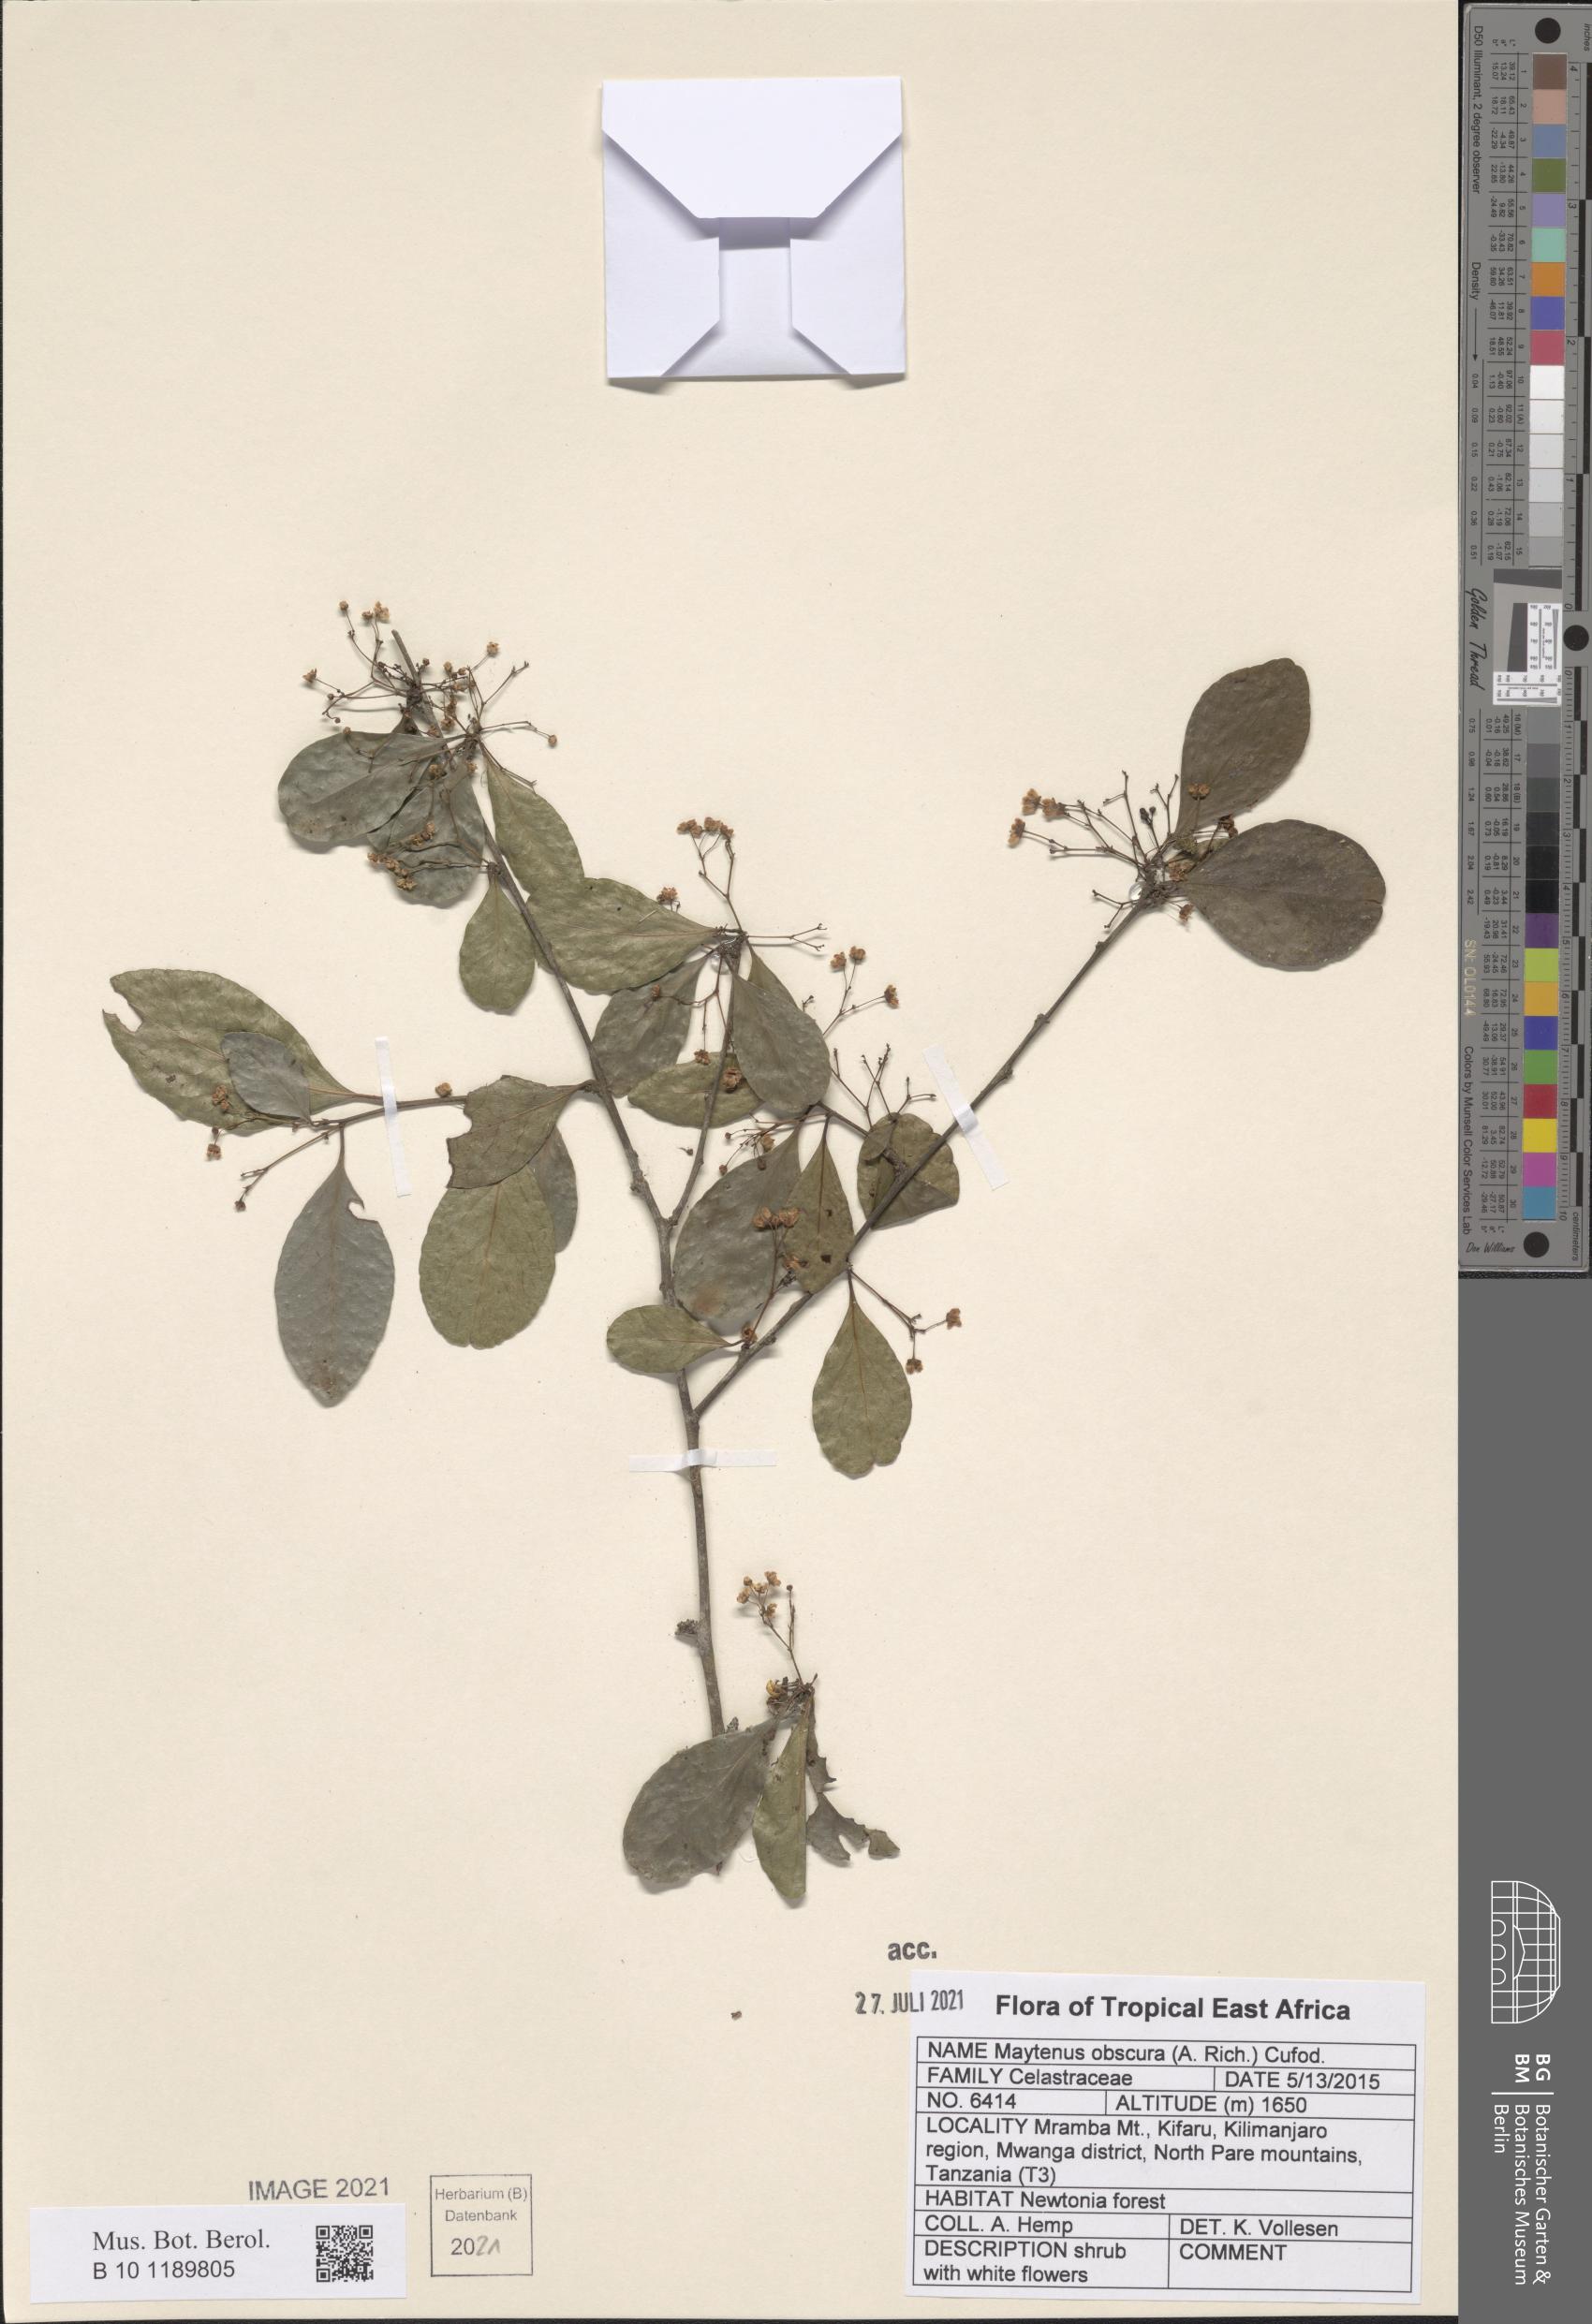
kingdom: Plantae
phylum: Tracheophyta
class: Magnoliopsida
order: Celastrales
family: Celastraceae
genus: Gymnosporia
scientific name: Gymnosporia obscura
